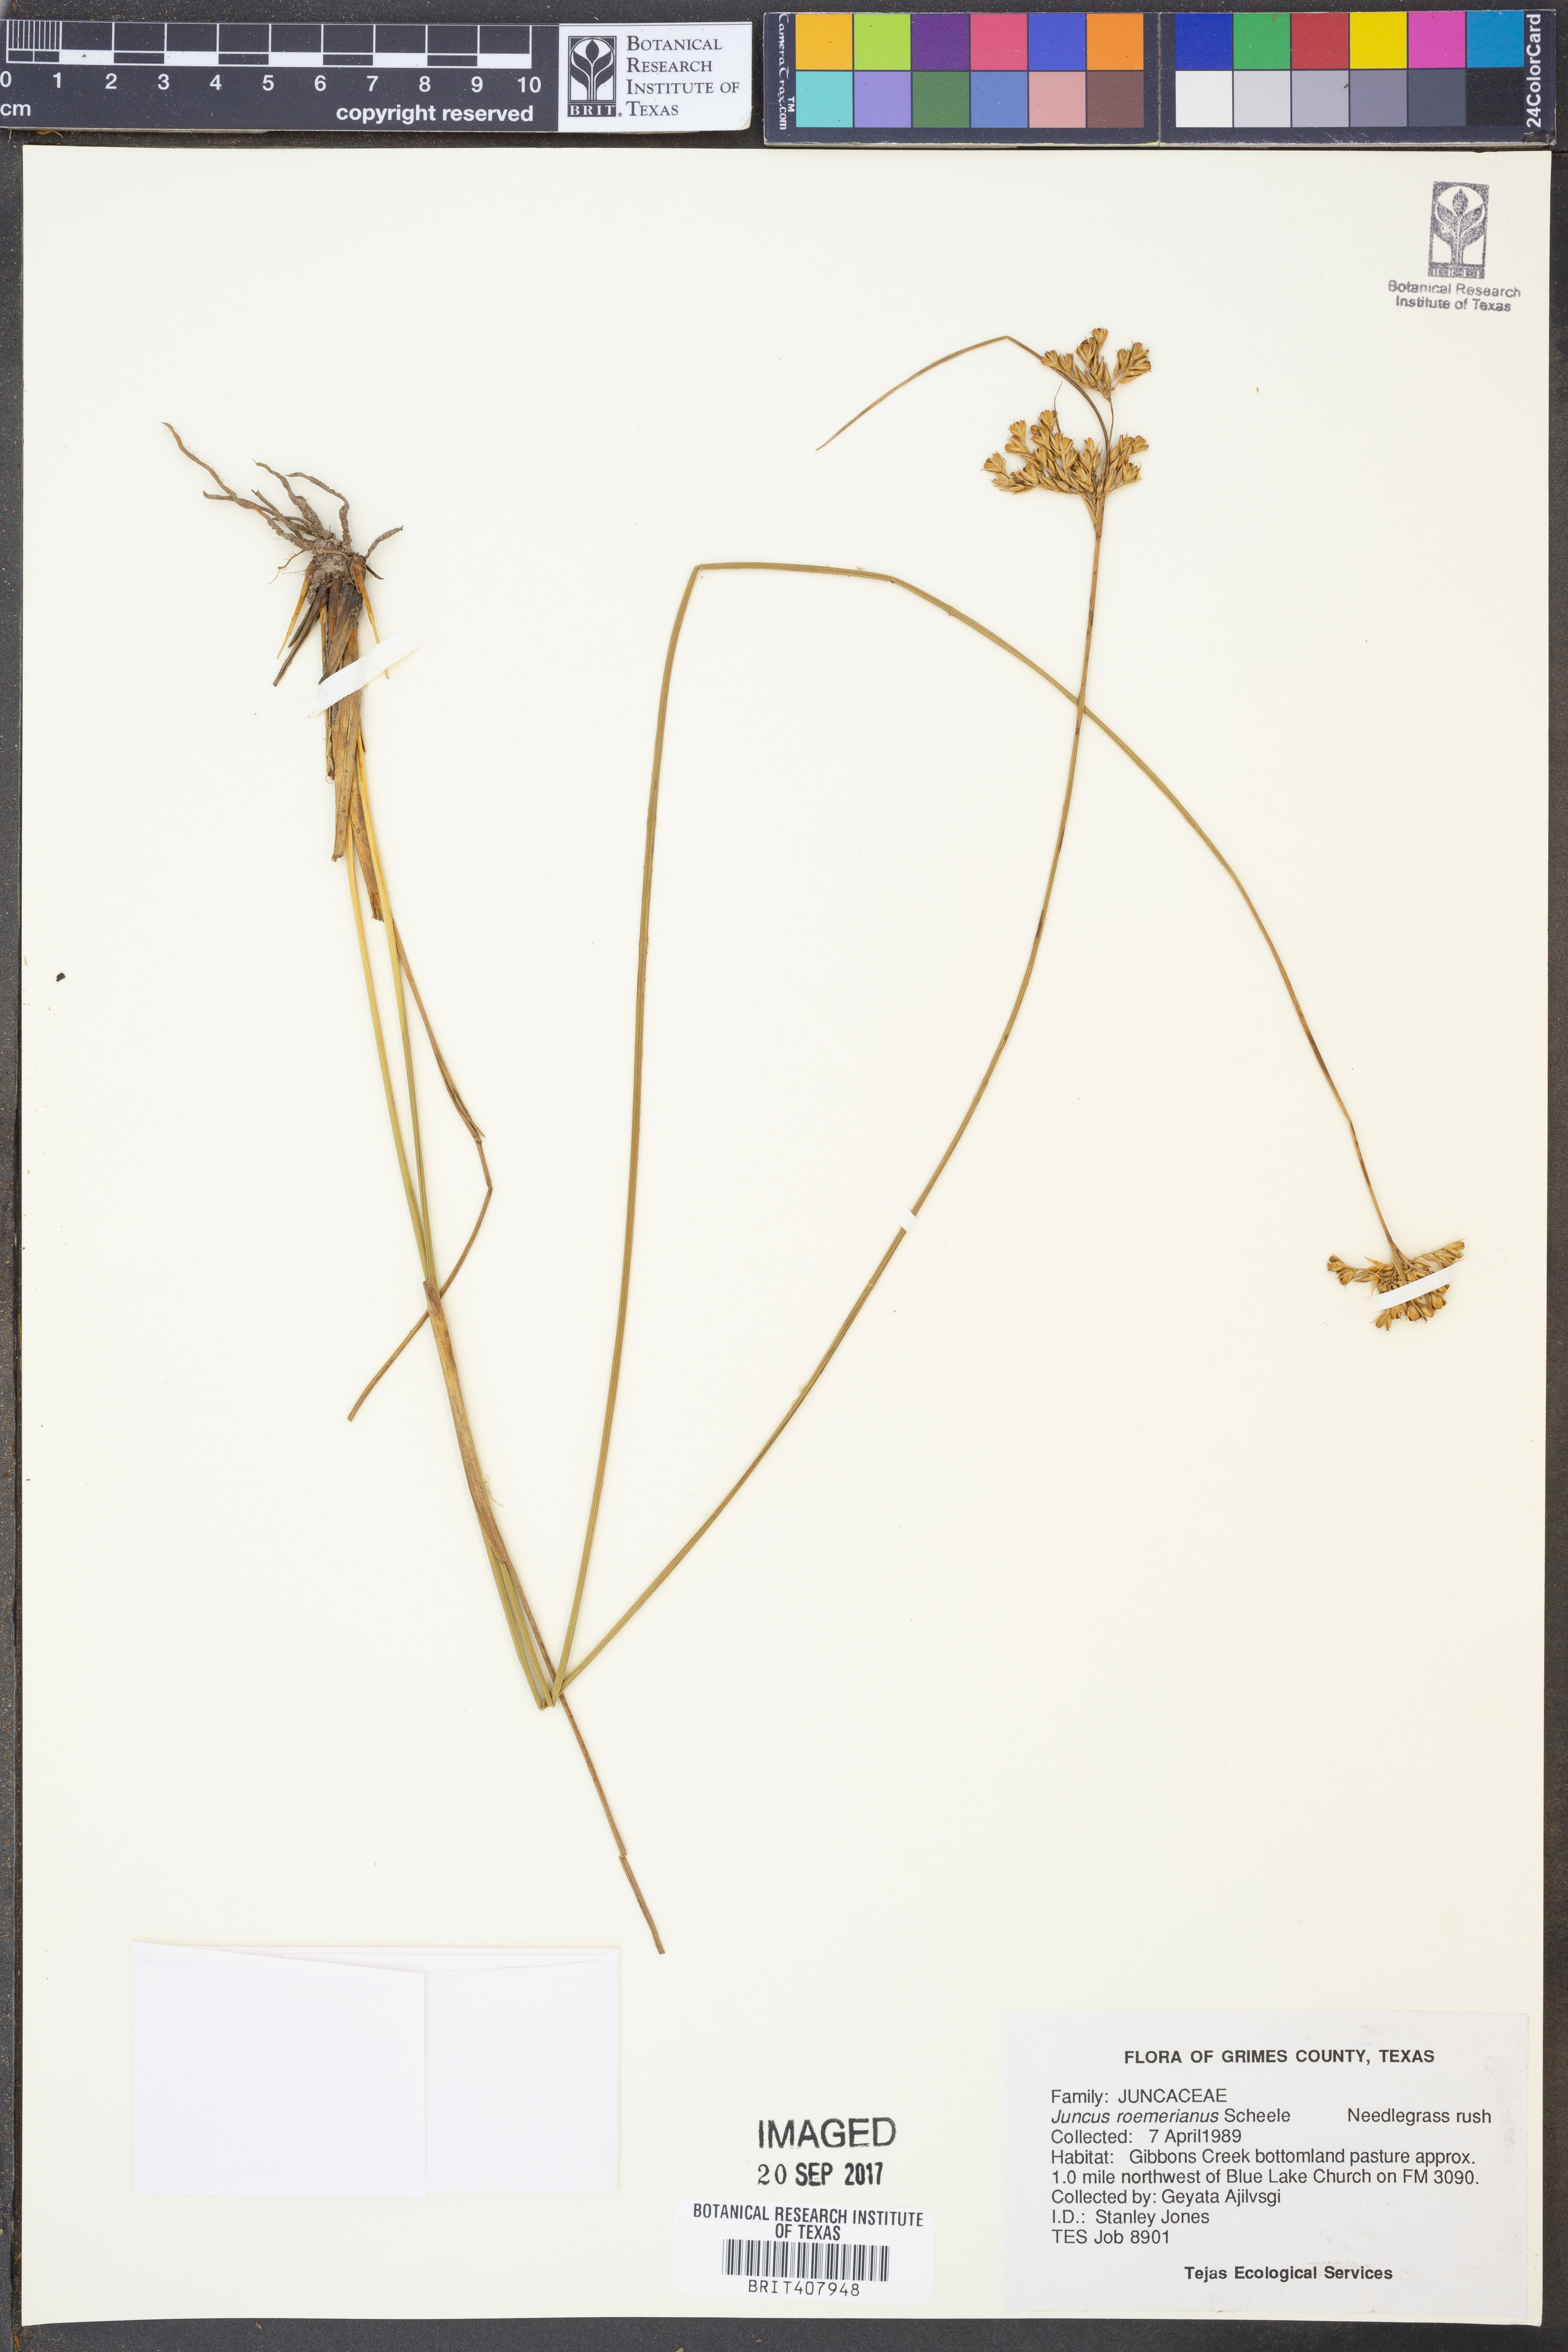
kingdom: Plantae
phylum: Tracheophyta
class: Liliopsida
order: Poales
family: Juncaceae
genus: Juncus
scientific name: Juncus roemerianus
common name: Roemer's rush
